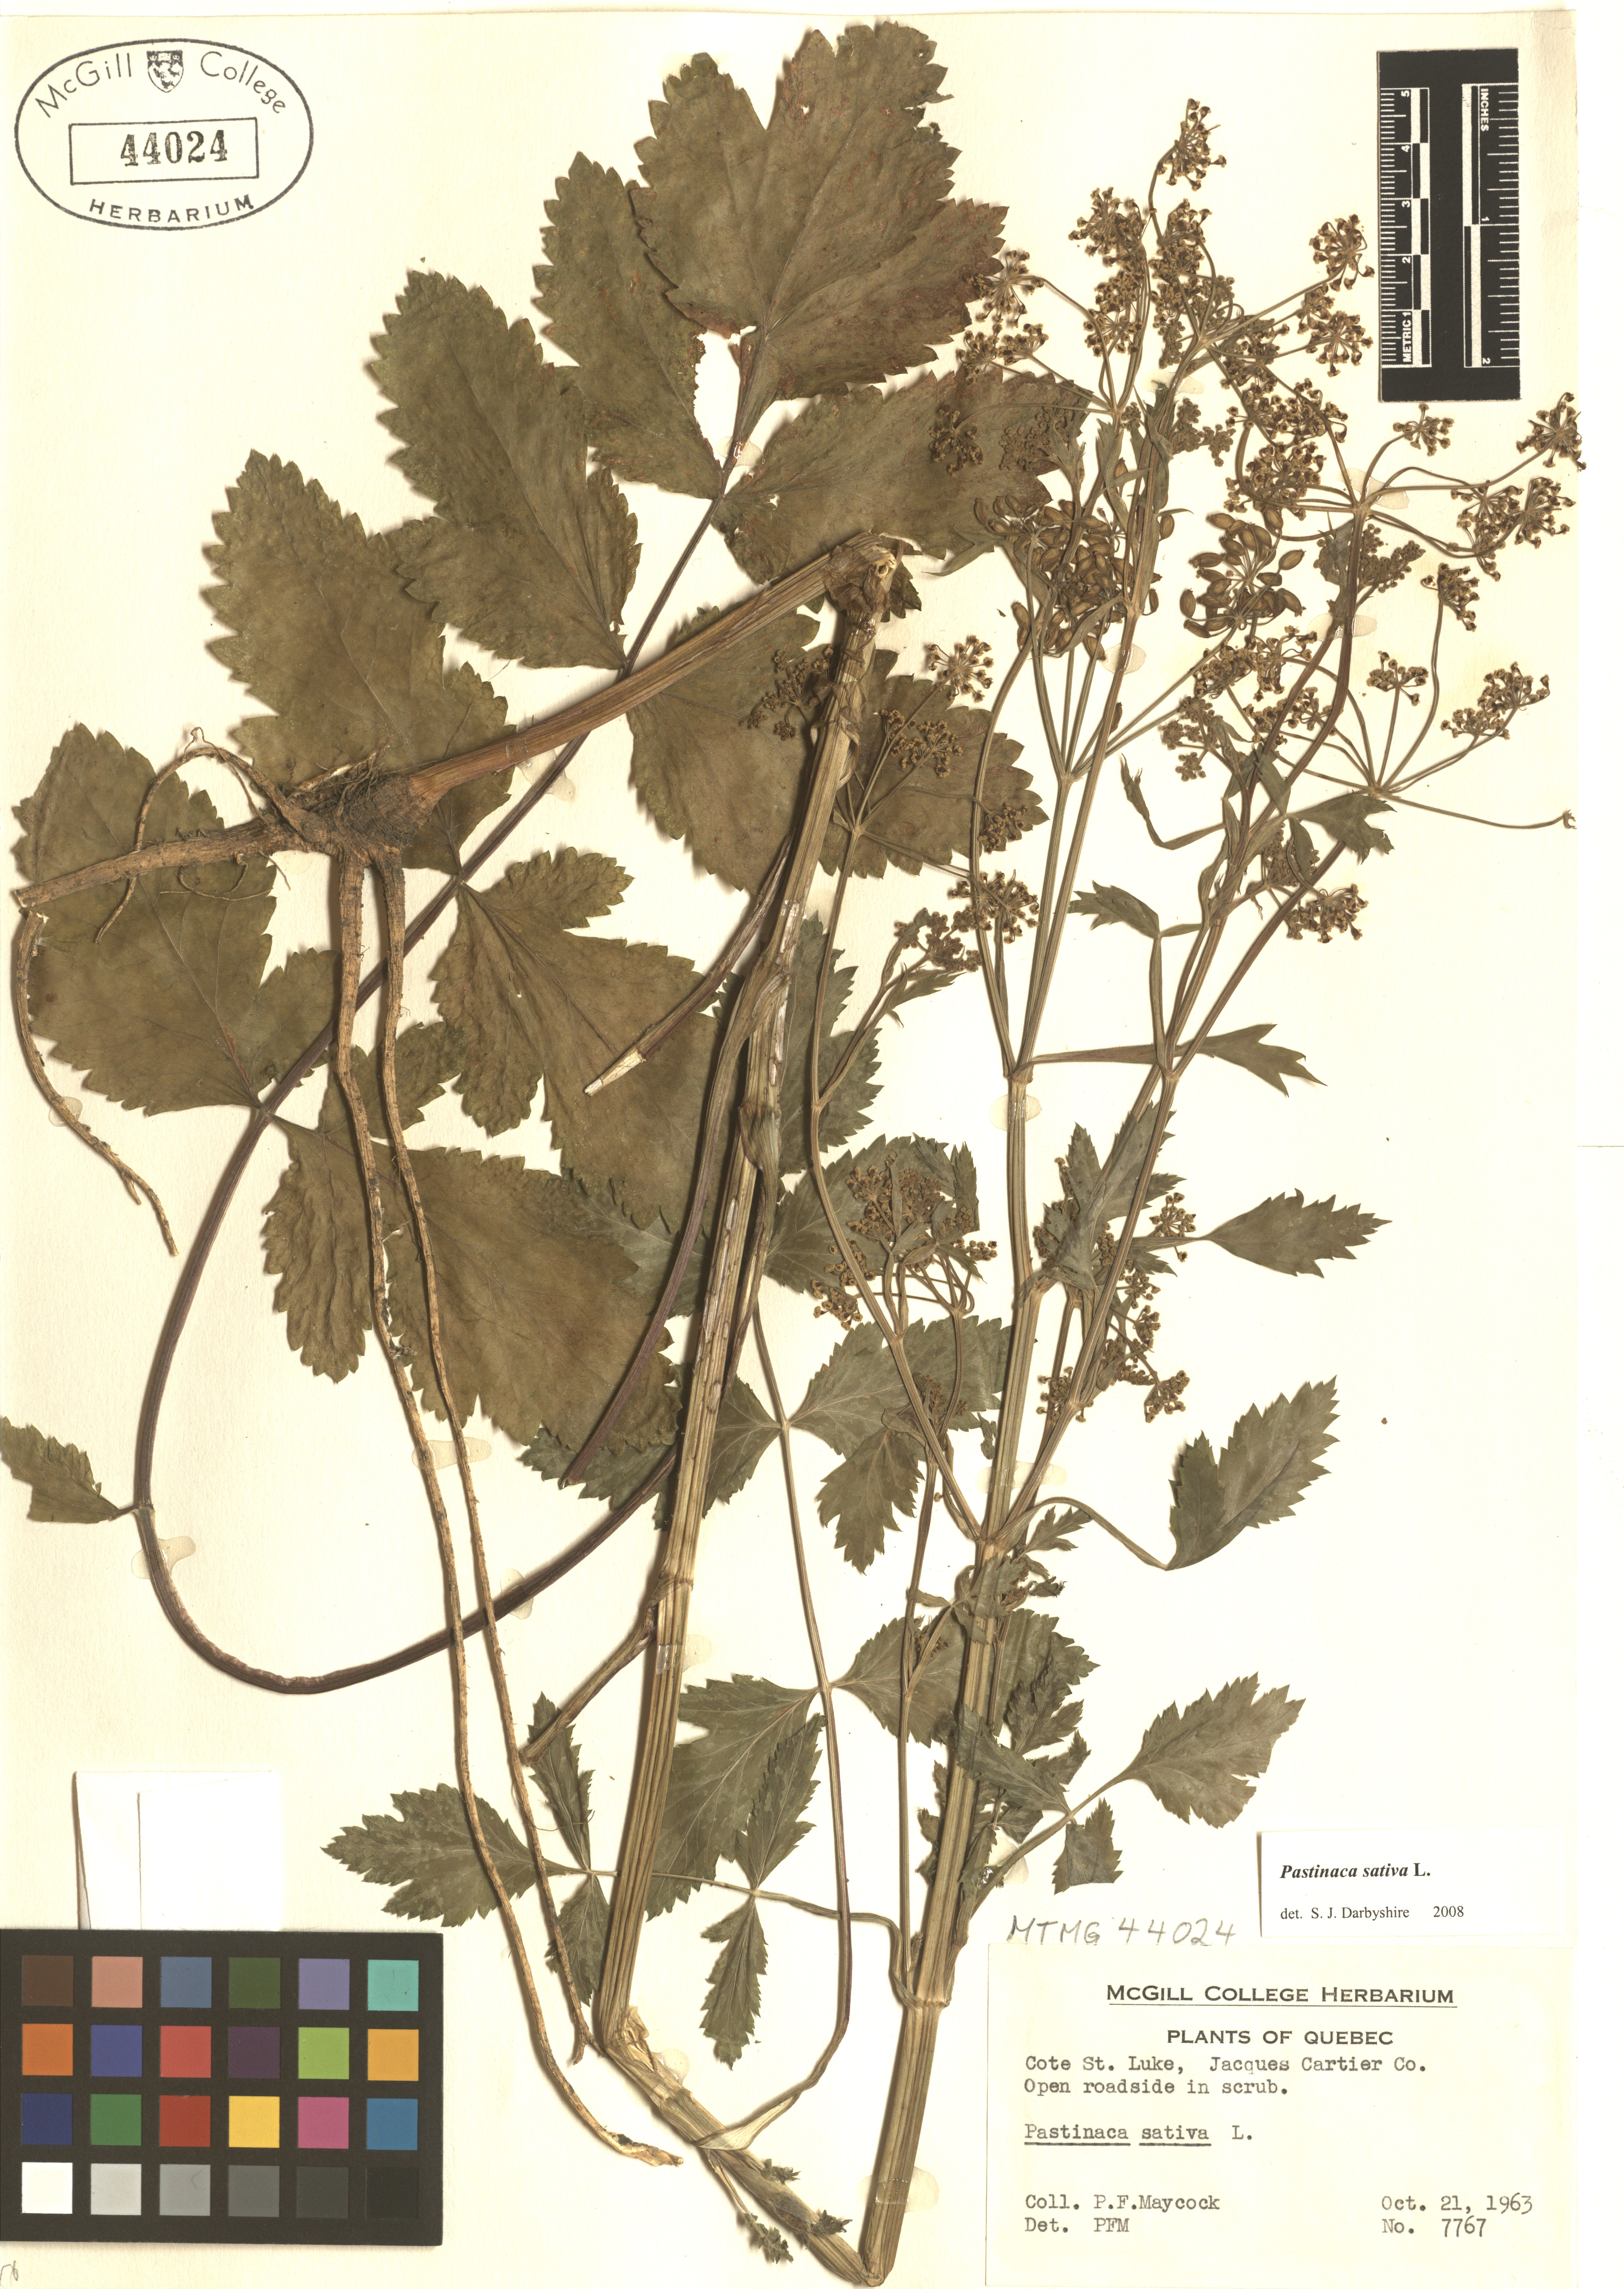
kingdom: Plantae
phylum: Tracheophyta
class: Magnoliopsida
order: Apiales
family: Apiaceae
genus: Pastinaca
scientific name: Pastinaca sativa
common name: Wild parsnip
